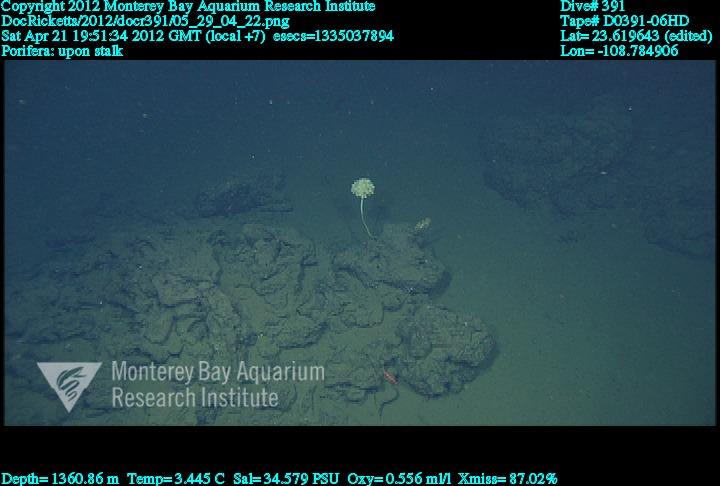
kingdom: Animalia
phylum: Porifera
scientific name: Porifera
